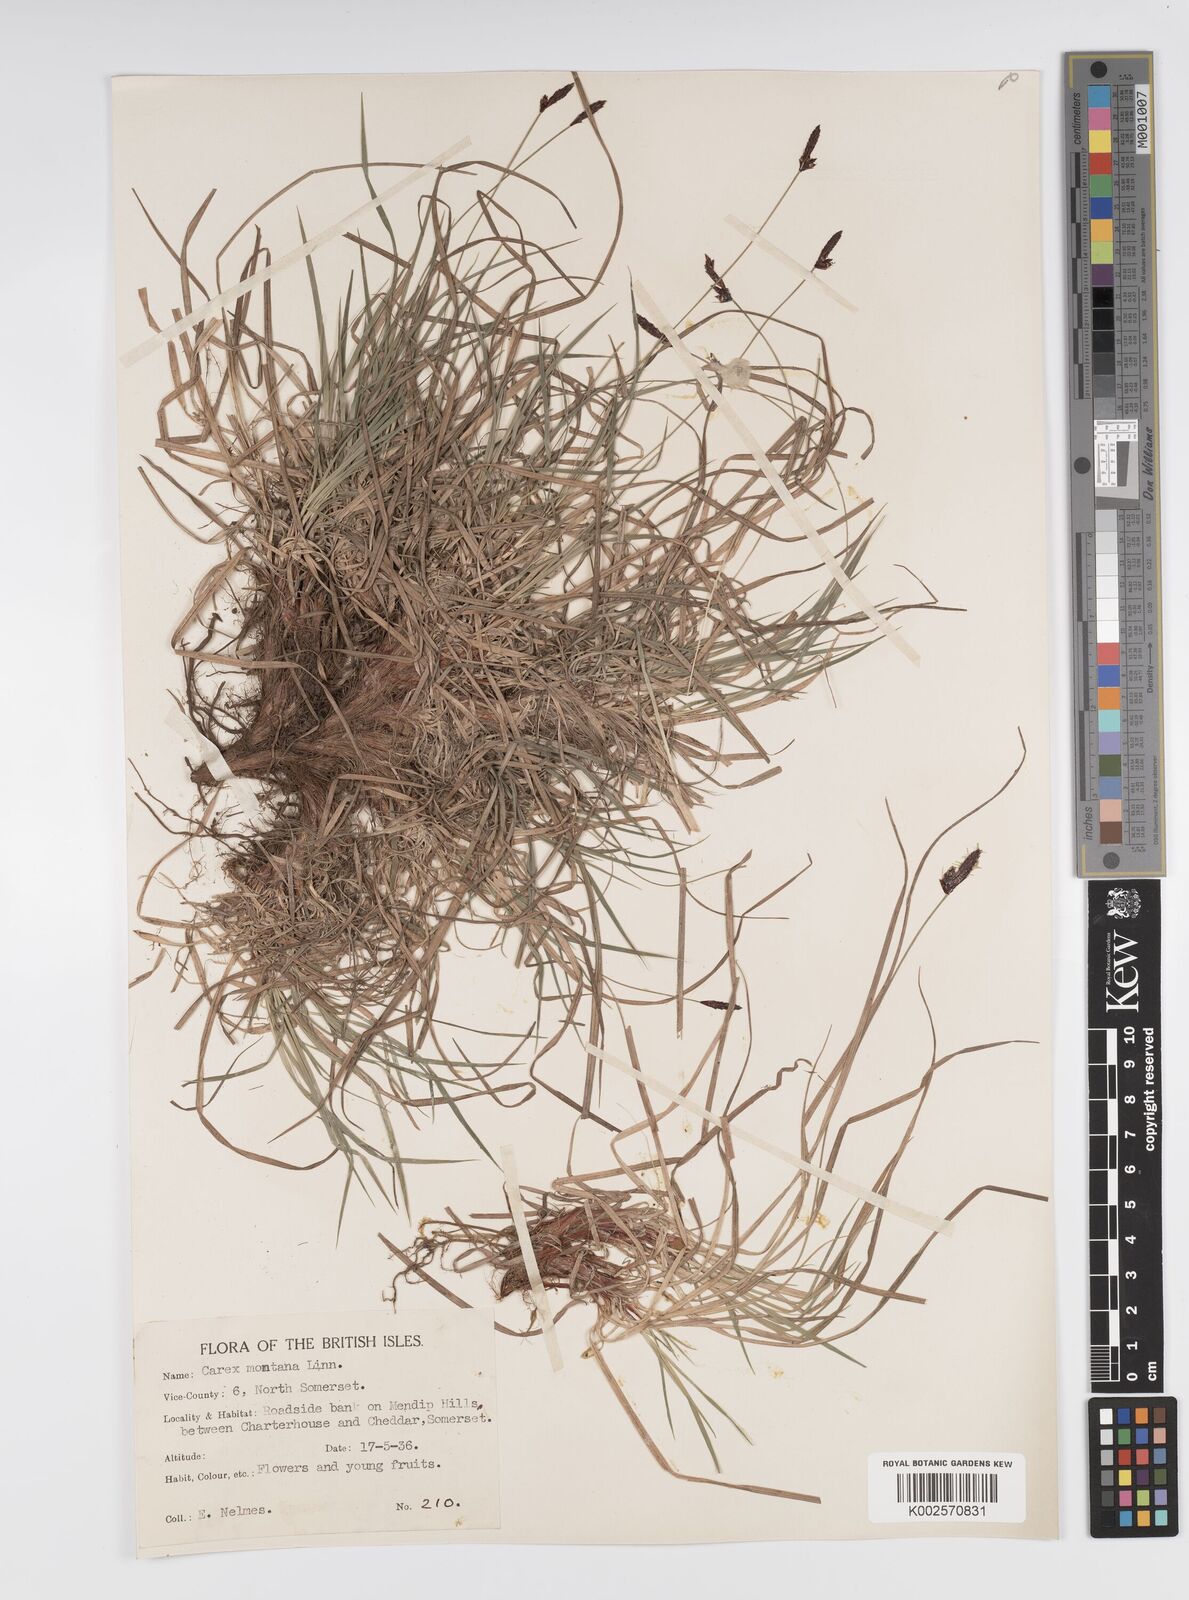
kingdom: Plantae
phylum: Tracheophyta
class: Liliopsida
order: Poales
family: Cyperaceae
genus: Carex
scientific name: Carex montana
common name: Soft-leaved sedge
